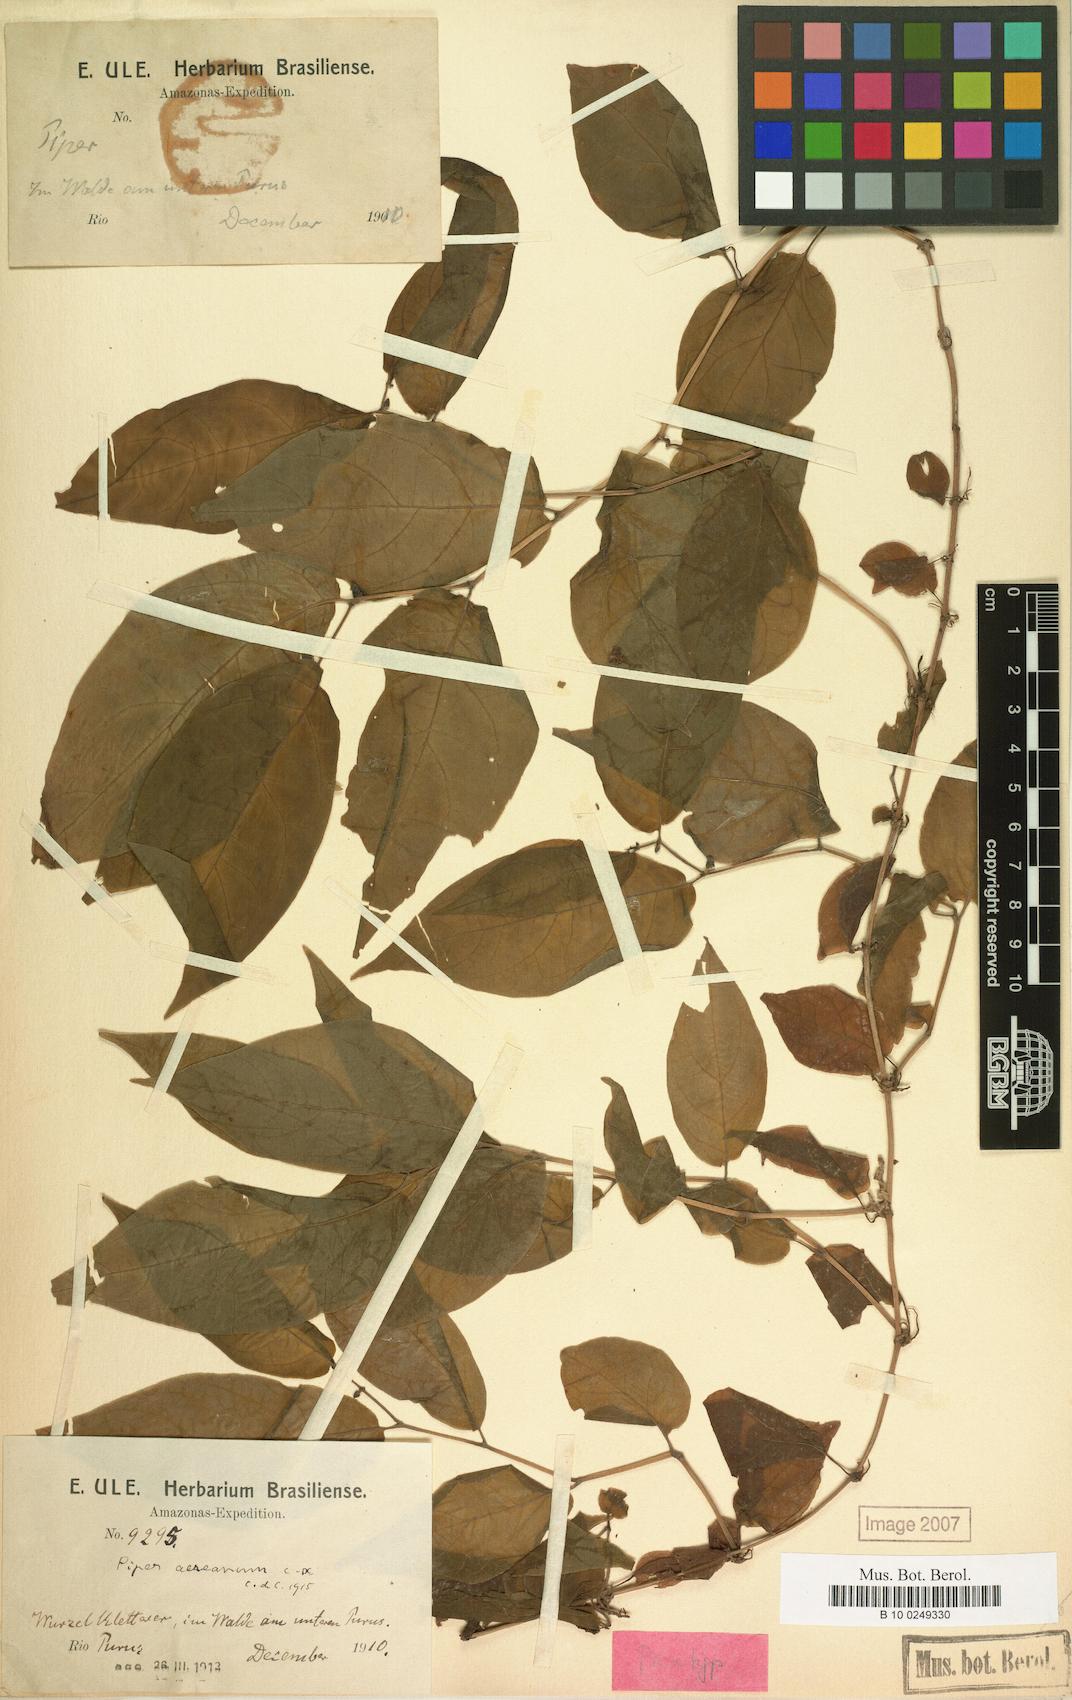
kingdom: Plantae
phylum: Tracheophyta
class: Magnoliopsida
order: Piperales
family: Piperaceae
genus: Piper
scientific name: Piper nematanthera
